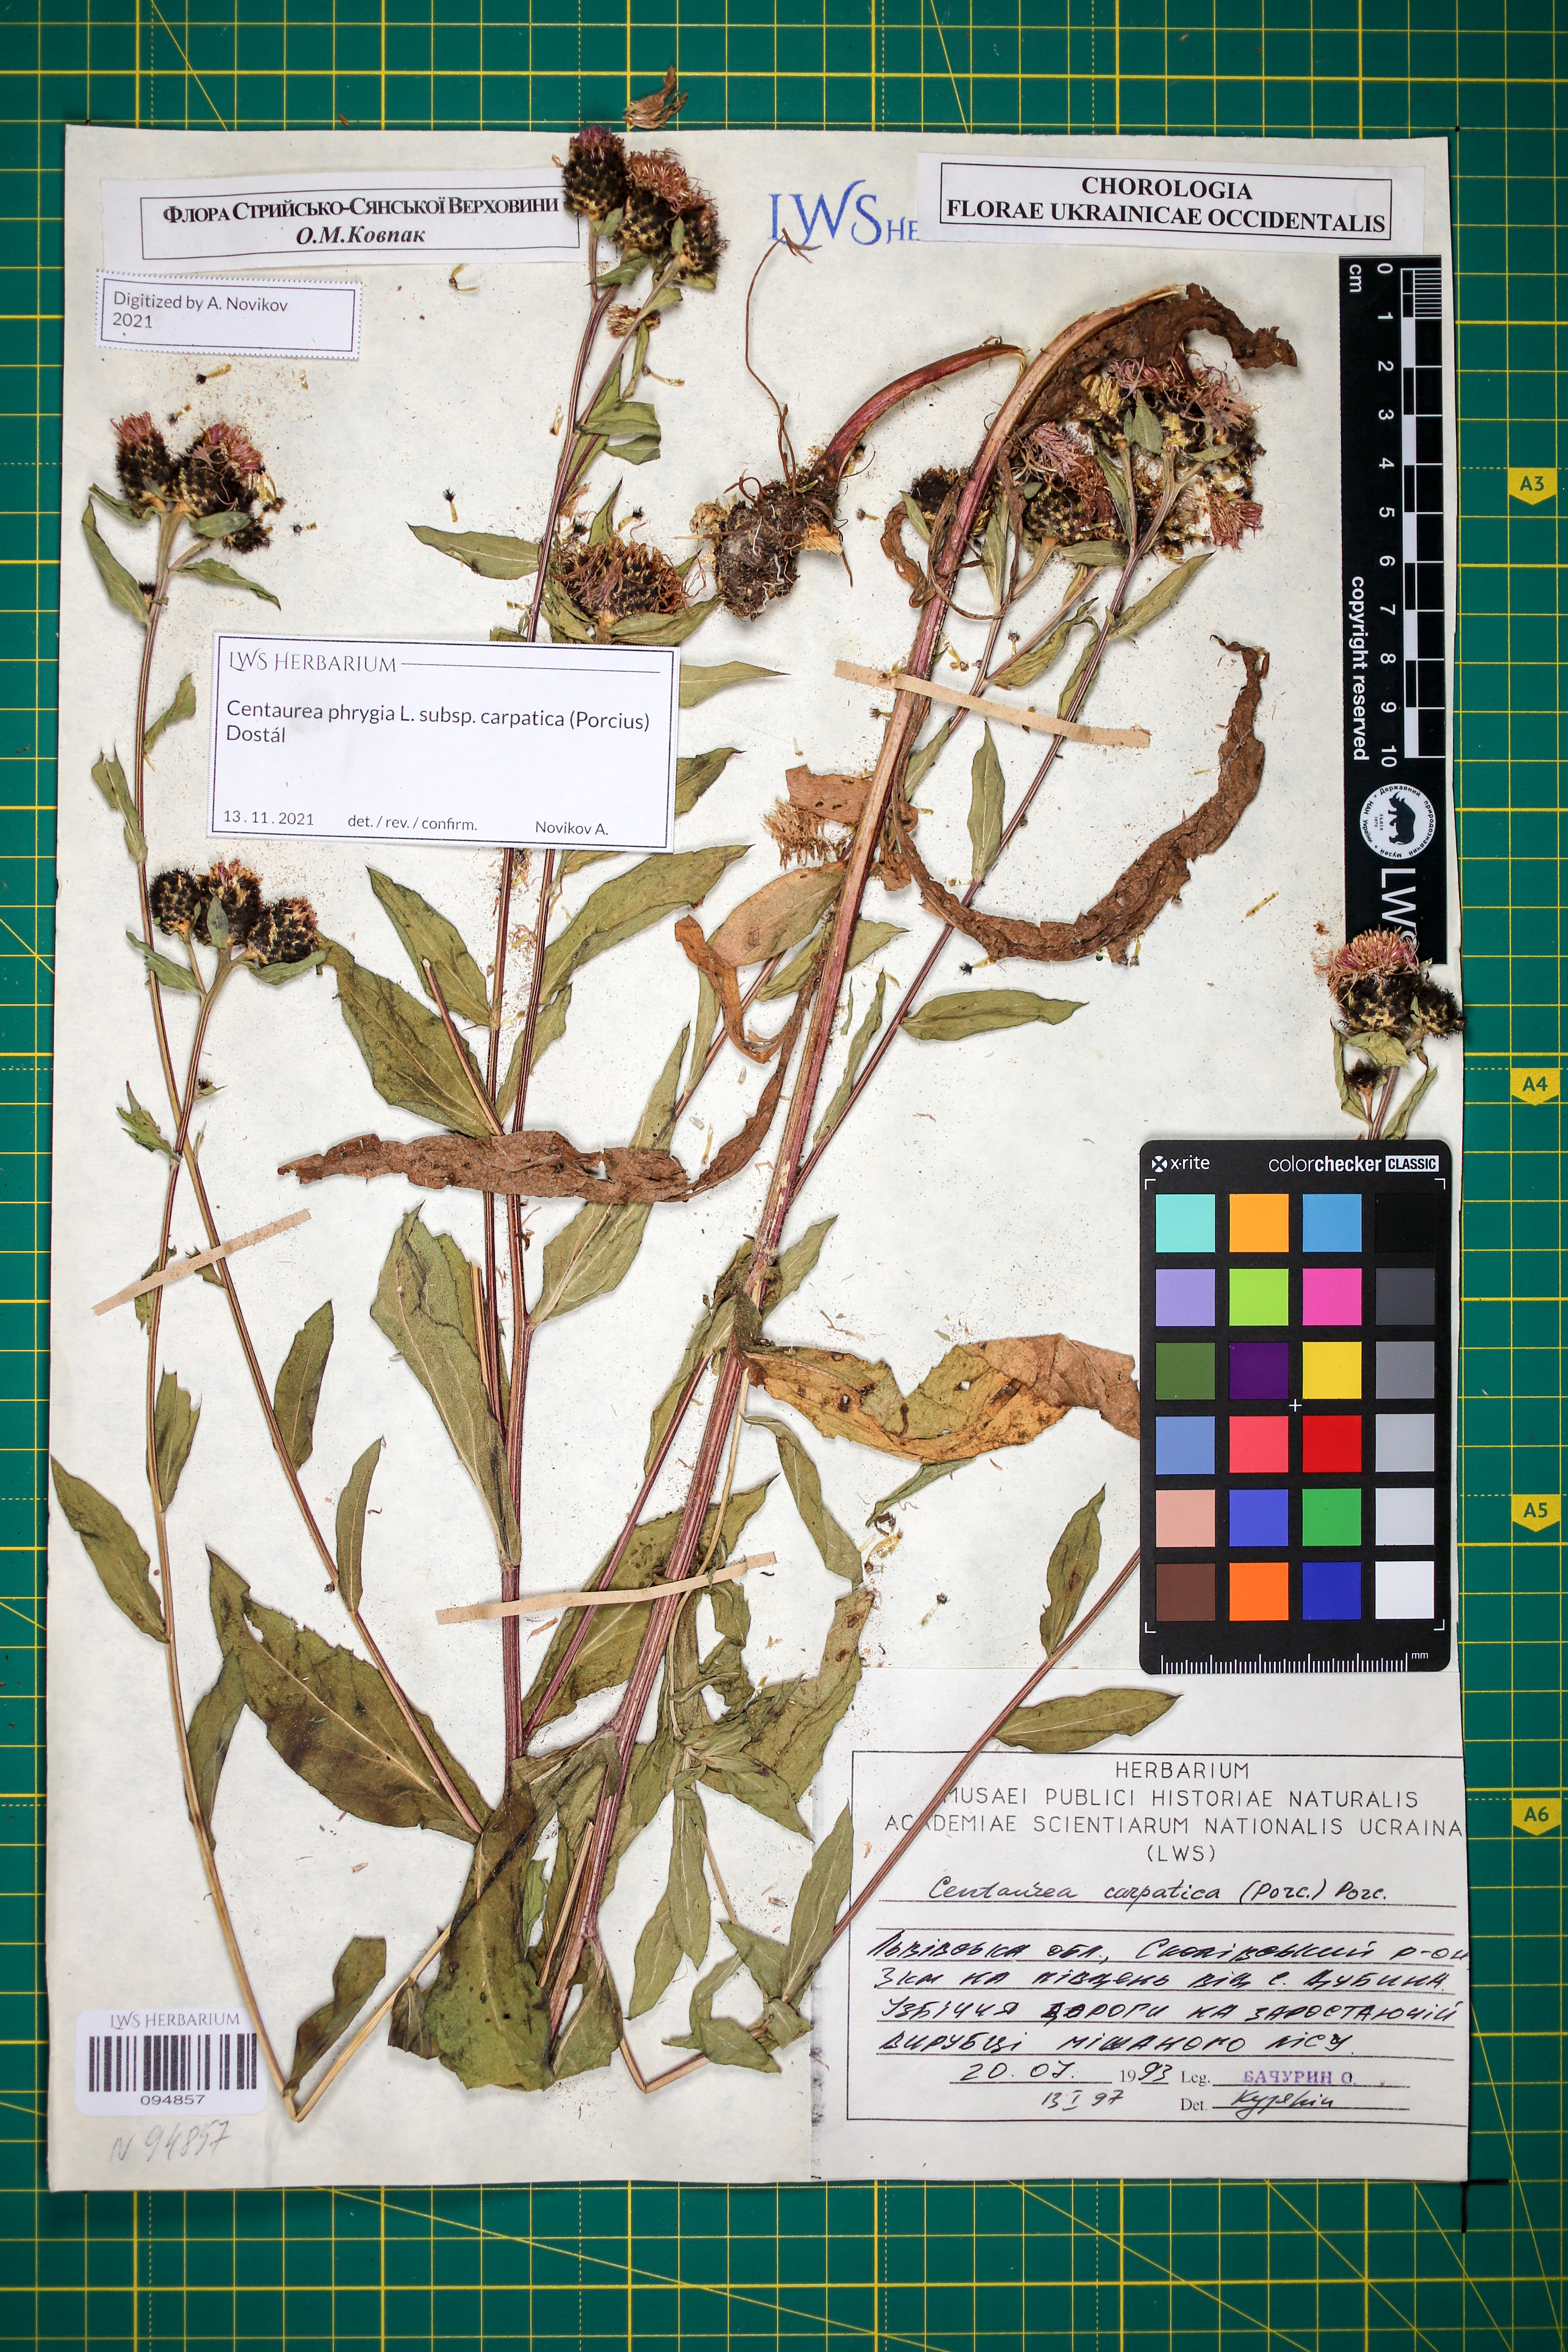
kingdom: Plantae
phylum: Tracheophyta
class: Magnoliopsida
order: Asterales
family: Asteraceae
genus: Centaurea
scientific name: Centaurea phrygia
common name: Wig knapweed
